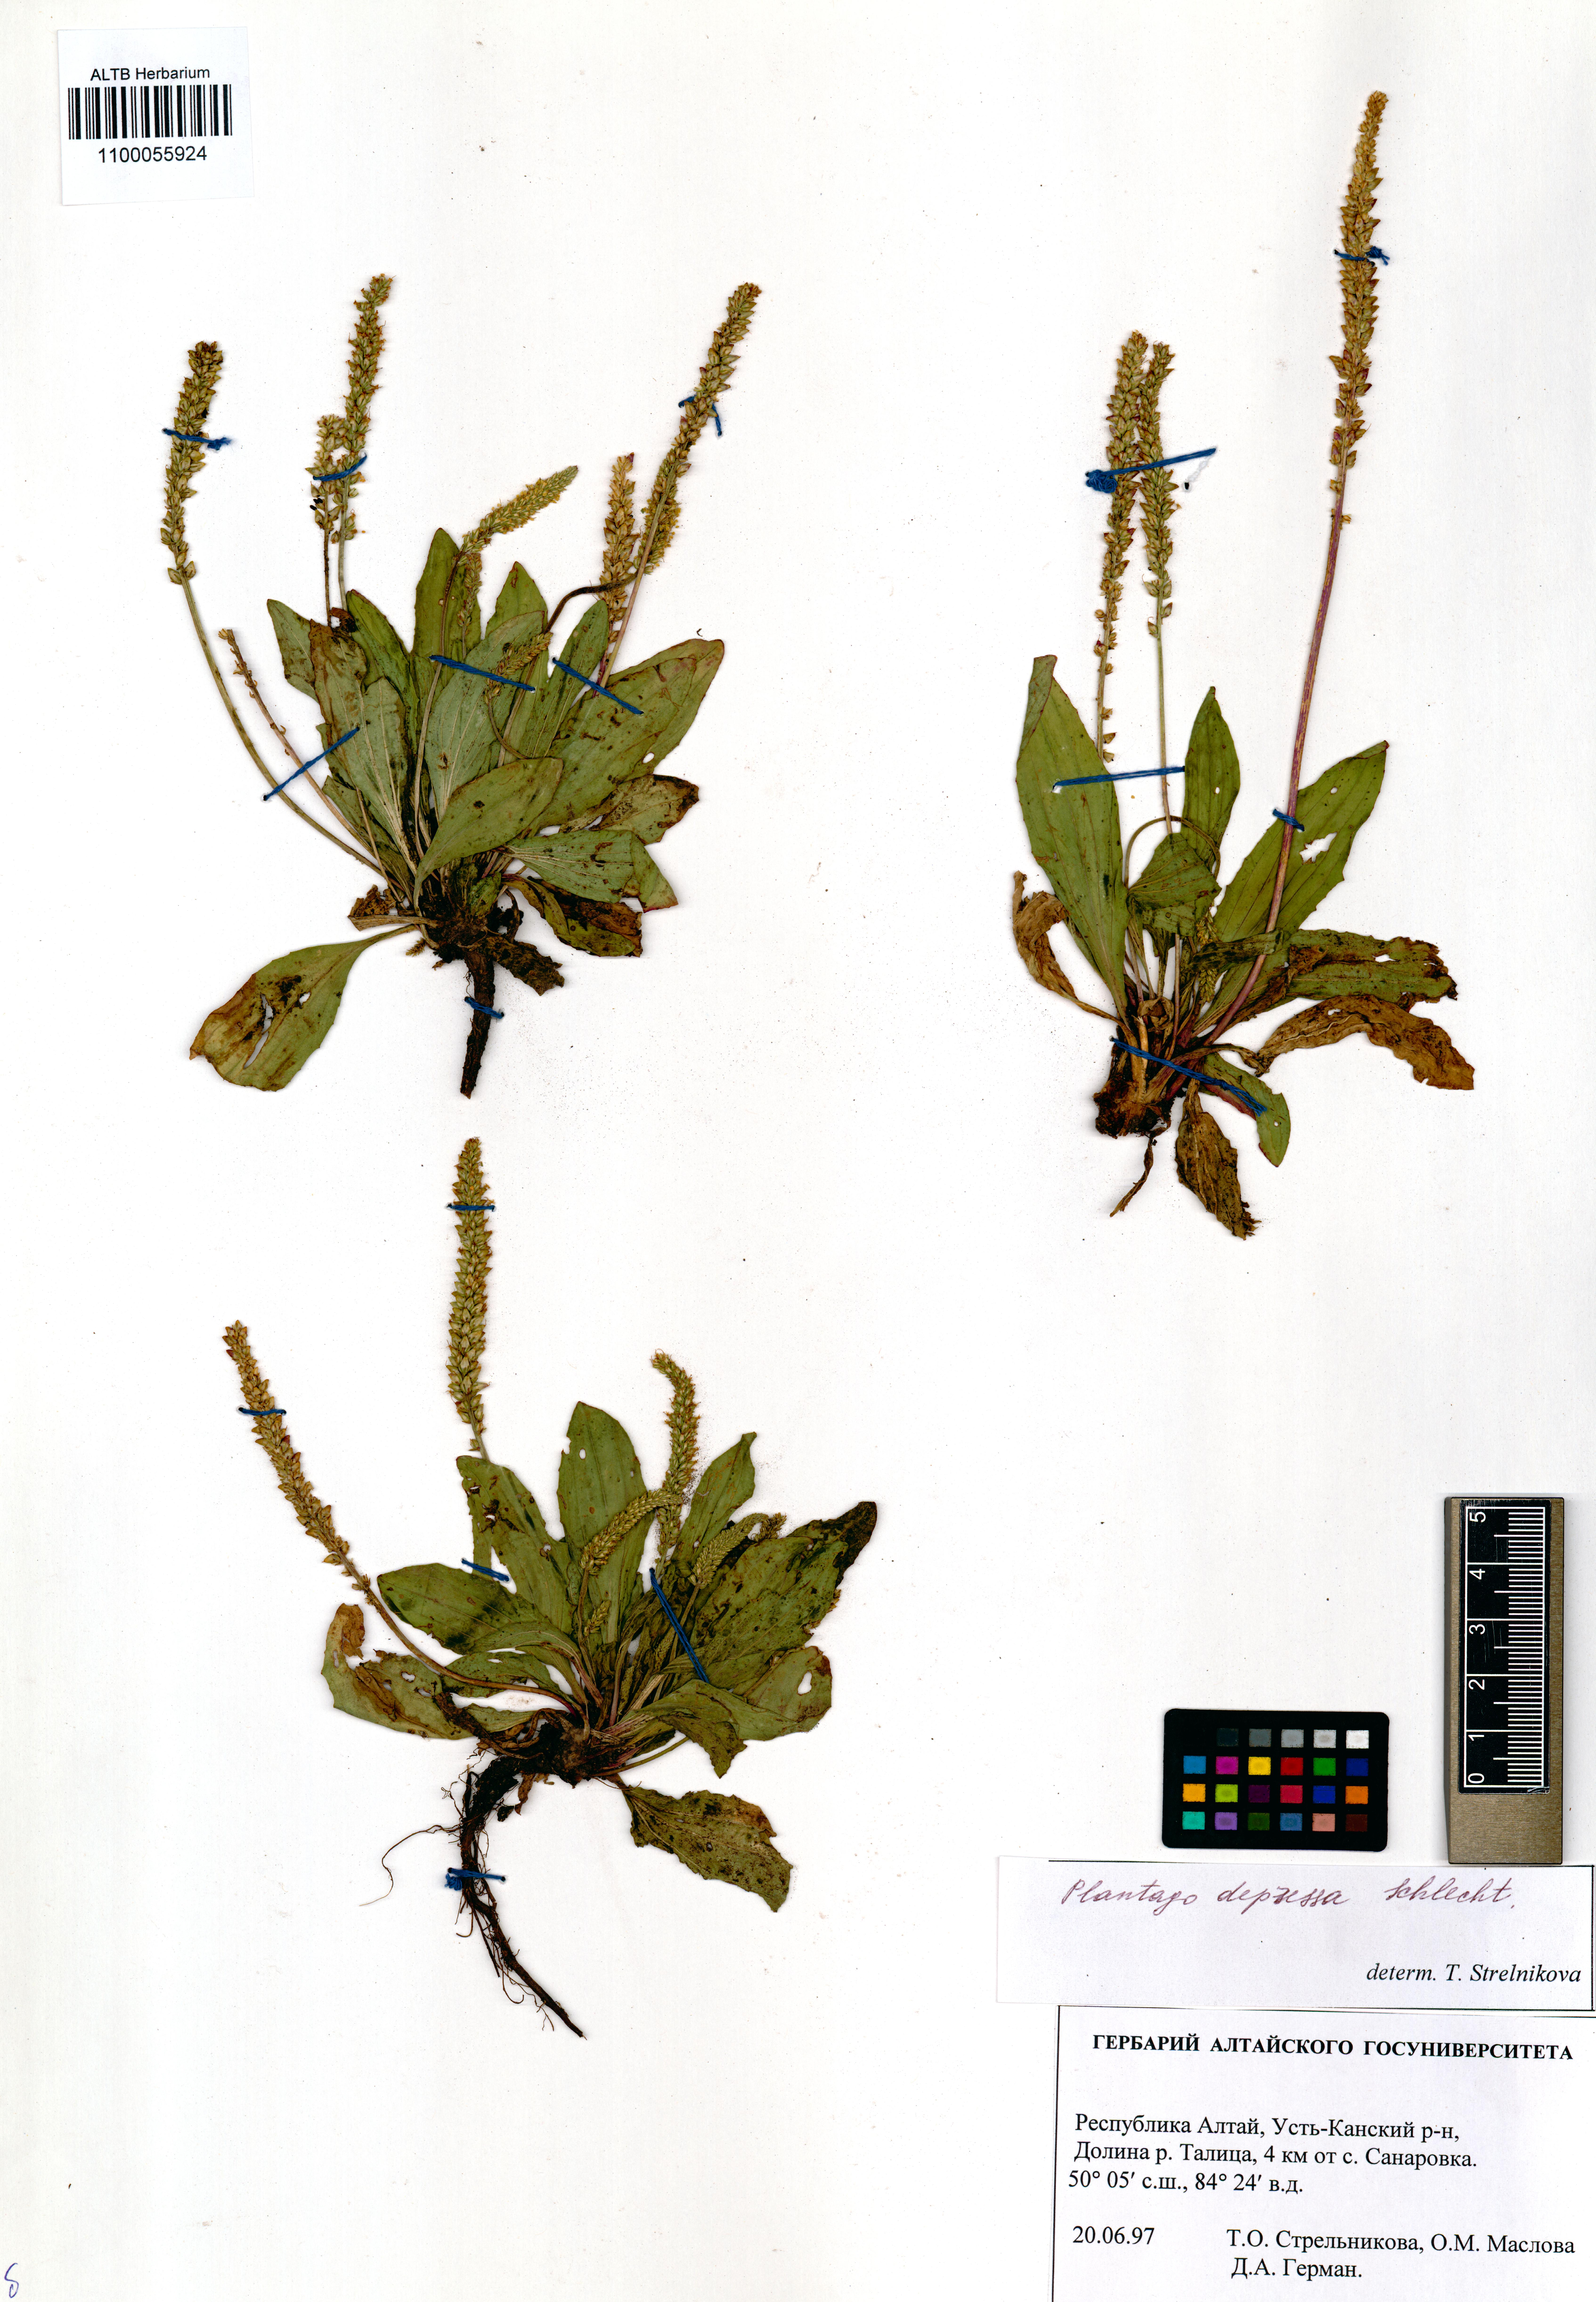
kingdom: Plantae
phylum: Tracheophyta
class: Magnoliopsida
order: Lamiales
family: Plantaginaceae
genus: Plantago
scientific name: Plantago depressa
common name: Depressed plantain
